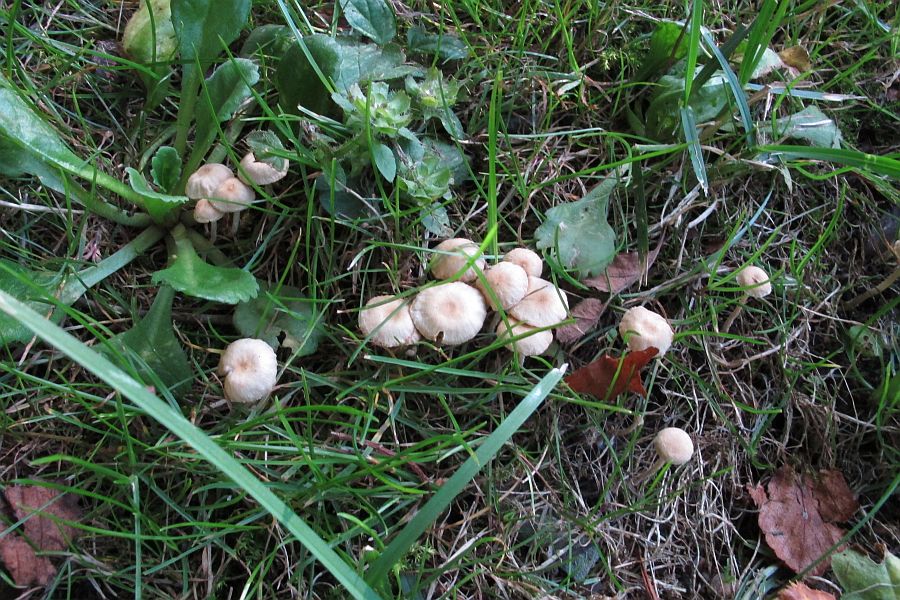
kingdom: Fungi
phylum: Basidiomycota
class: Agaricomycetes
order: Agaricales
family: Tubariaceae
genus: Tubaria
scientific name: Tubaria dispersa
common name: tjørne-fnughat
